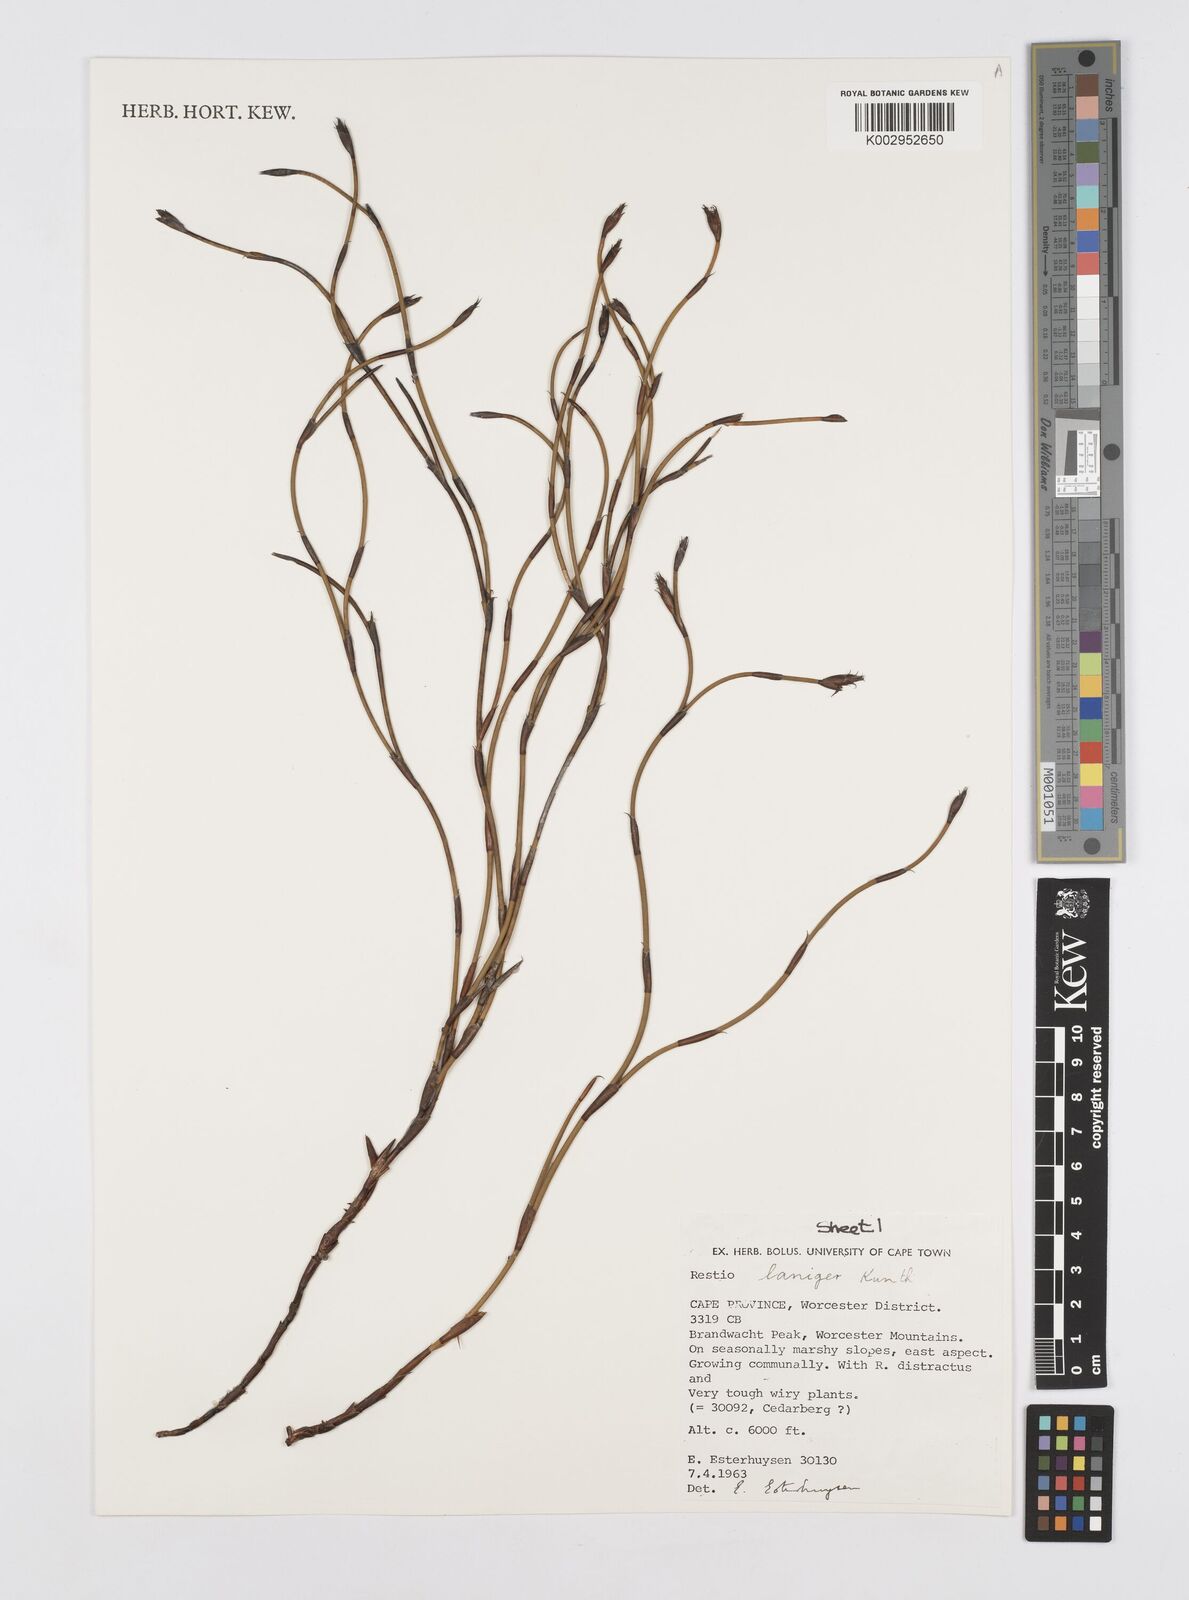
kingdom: Plantae
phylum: Tracheophyta
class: Liliopsida
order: Poales
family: Restionaceae
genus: Restio
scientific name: Restio laniger
